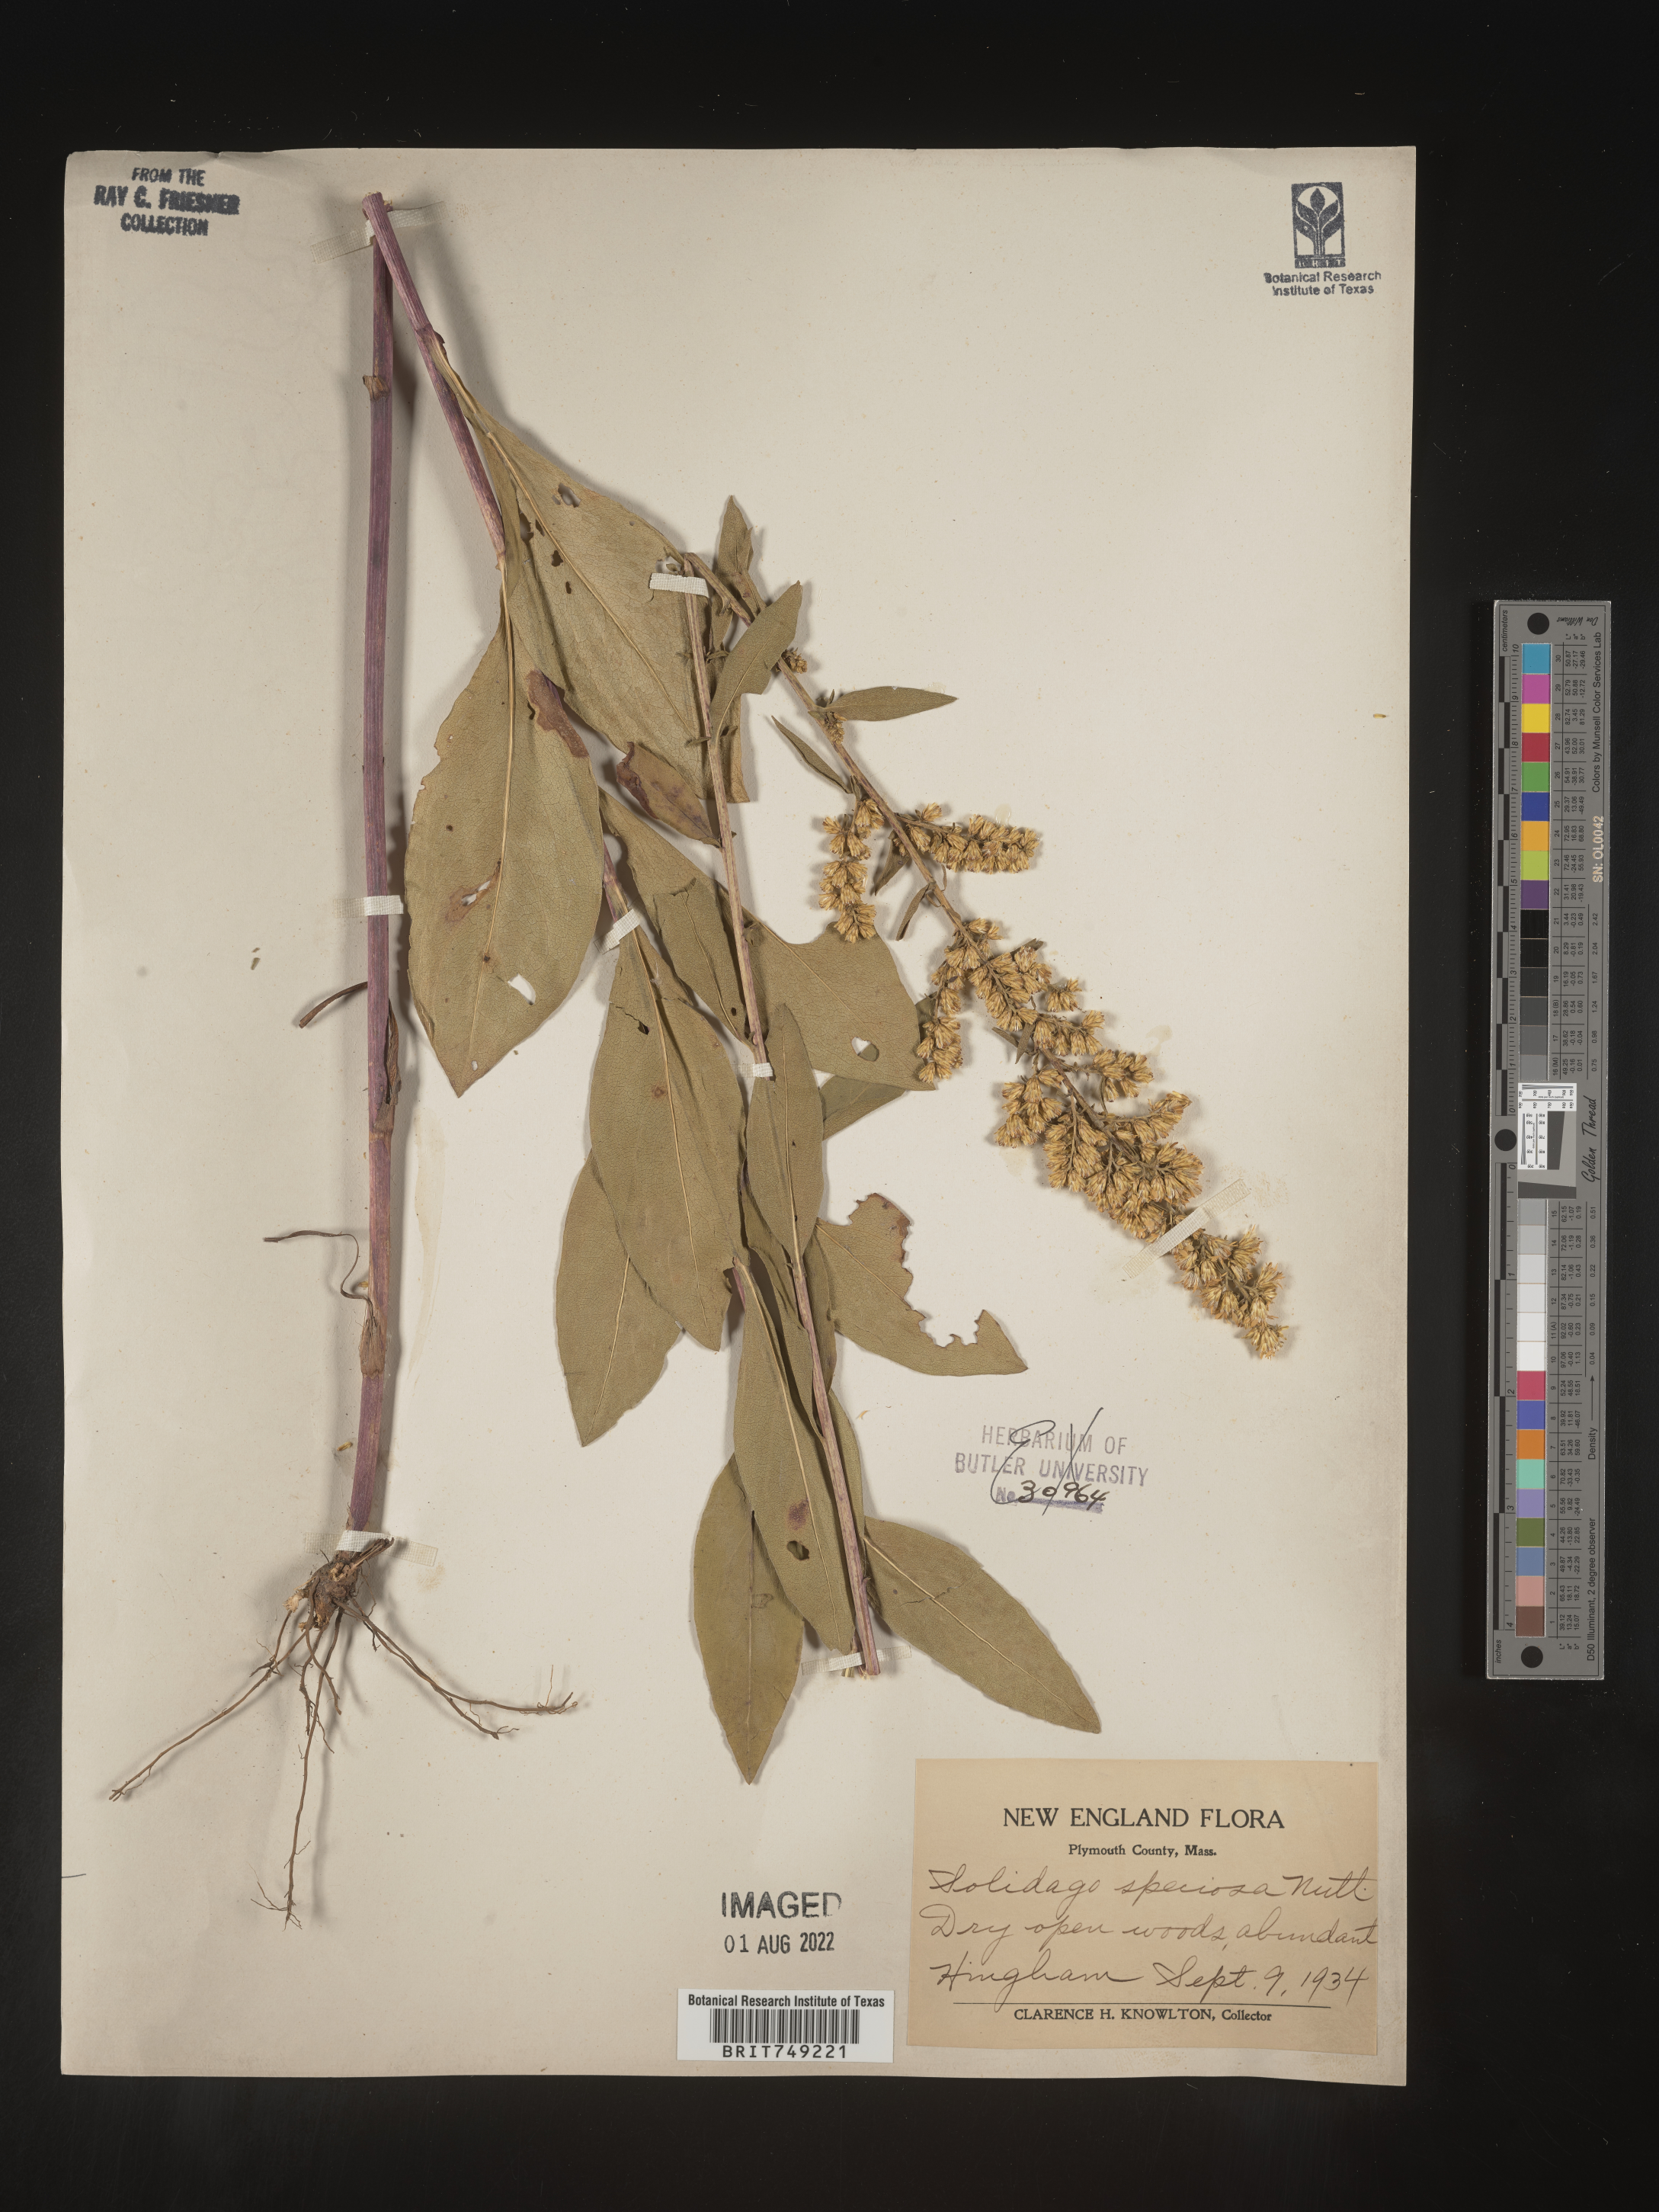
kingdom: Plantae
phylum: Tracheophyta
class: Magnoliopsida
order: Asterales
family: Asteraceae
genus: Solidago
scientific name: Solidago speciosa
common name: Showy goldenrod
